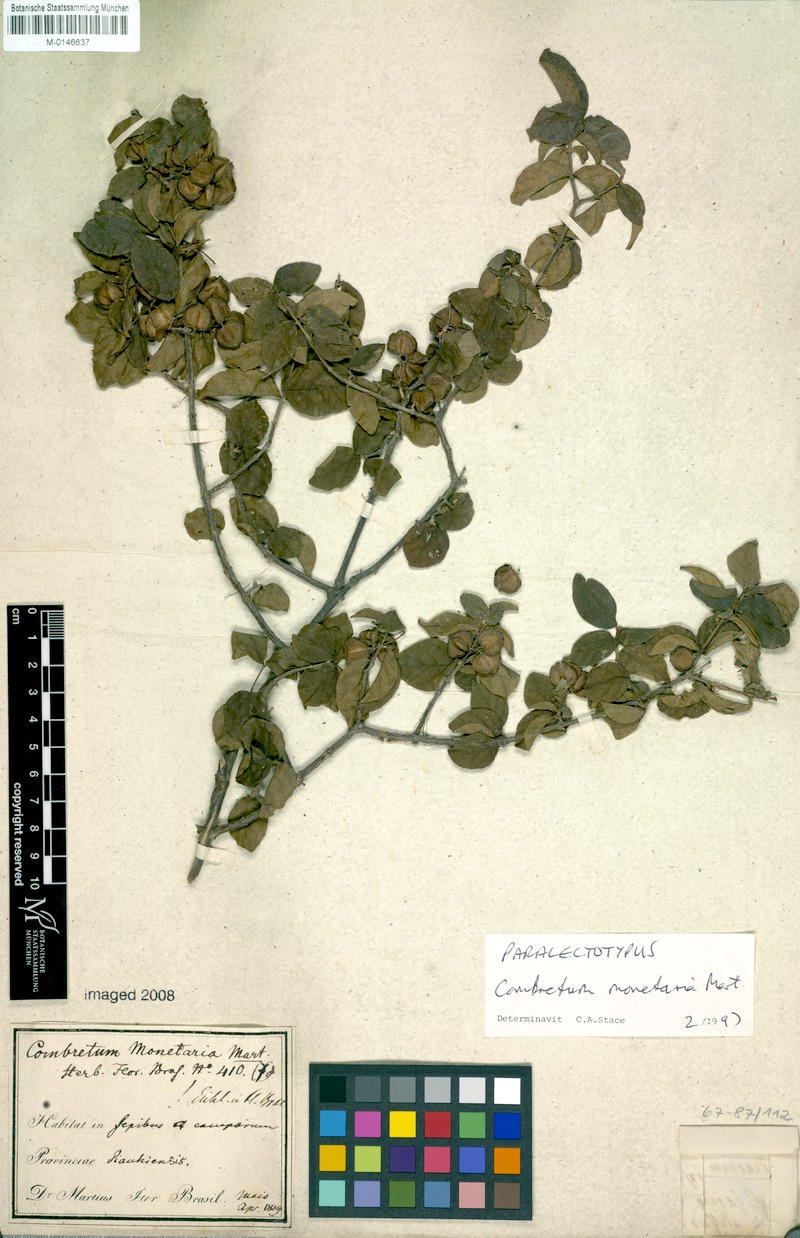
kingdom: Plantae
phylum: Tracheophyta
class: Magnoliopsida
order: Myrtales
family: Combretaceae
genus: Combretum
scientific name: Combretum monetaria
